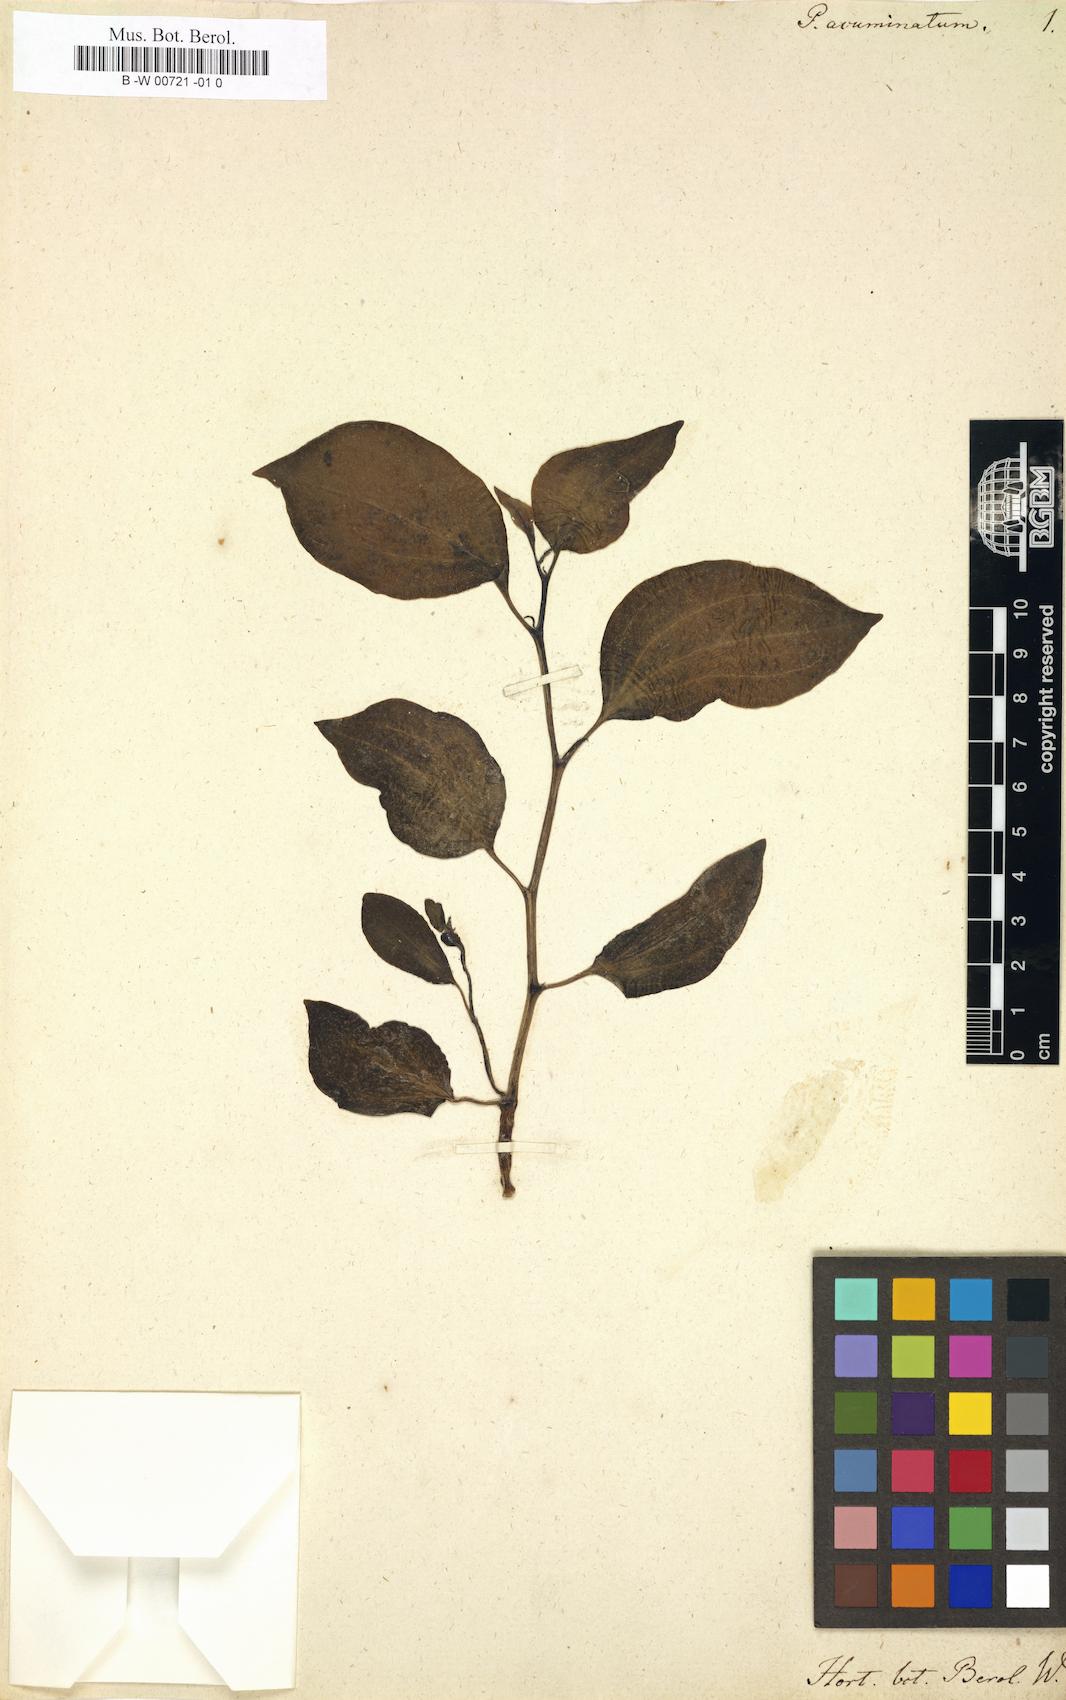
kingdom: Plantae
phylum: Tracheophyta
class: Magnoliopsida
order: Piperales
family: Piperaceae
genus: Peperomia
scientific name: Peperomia acuminata
